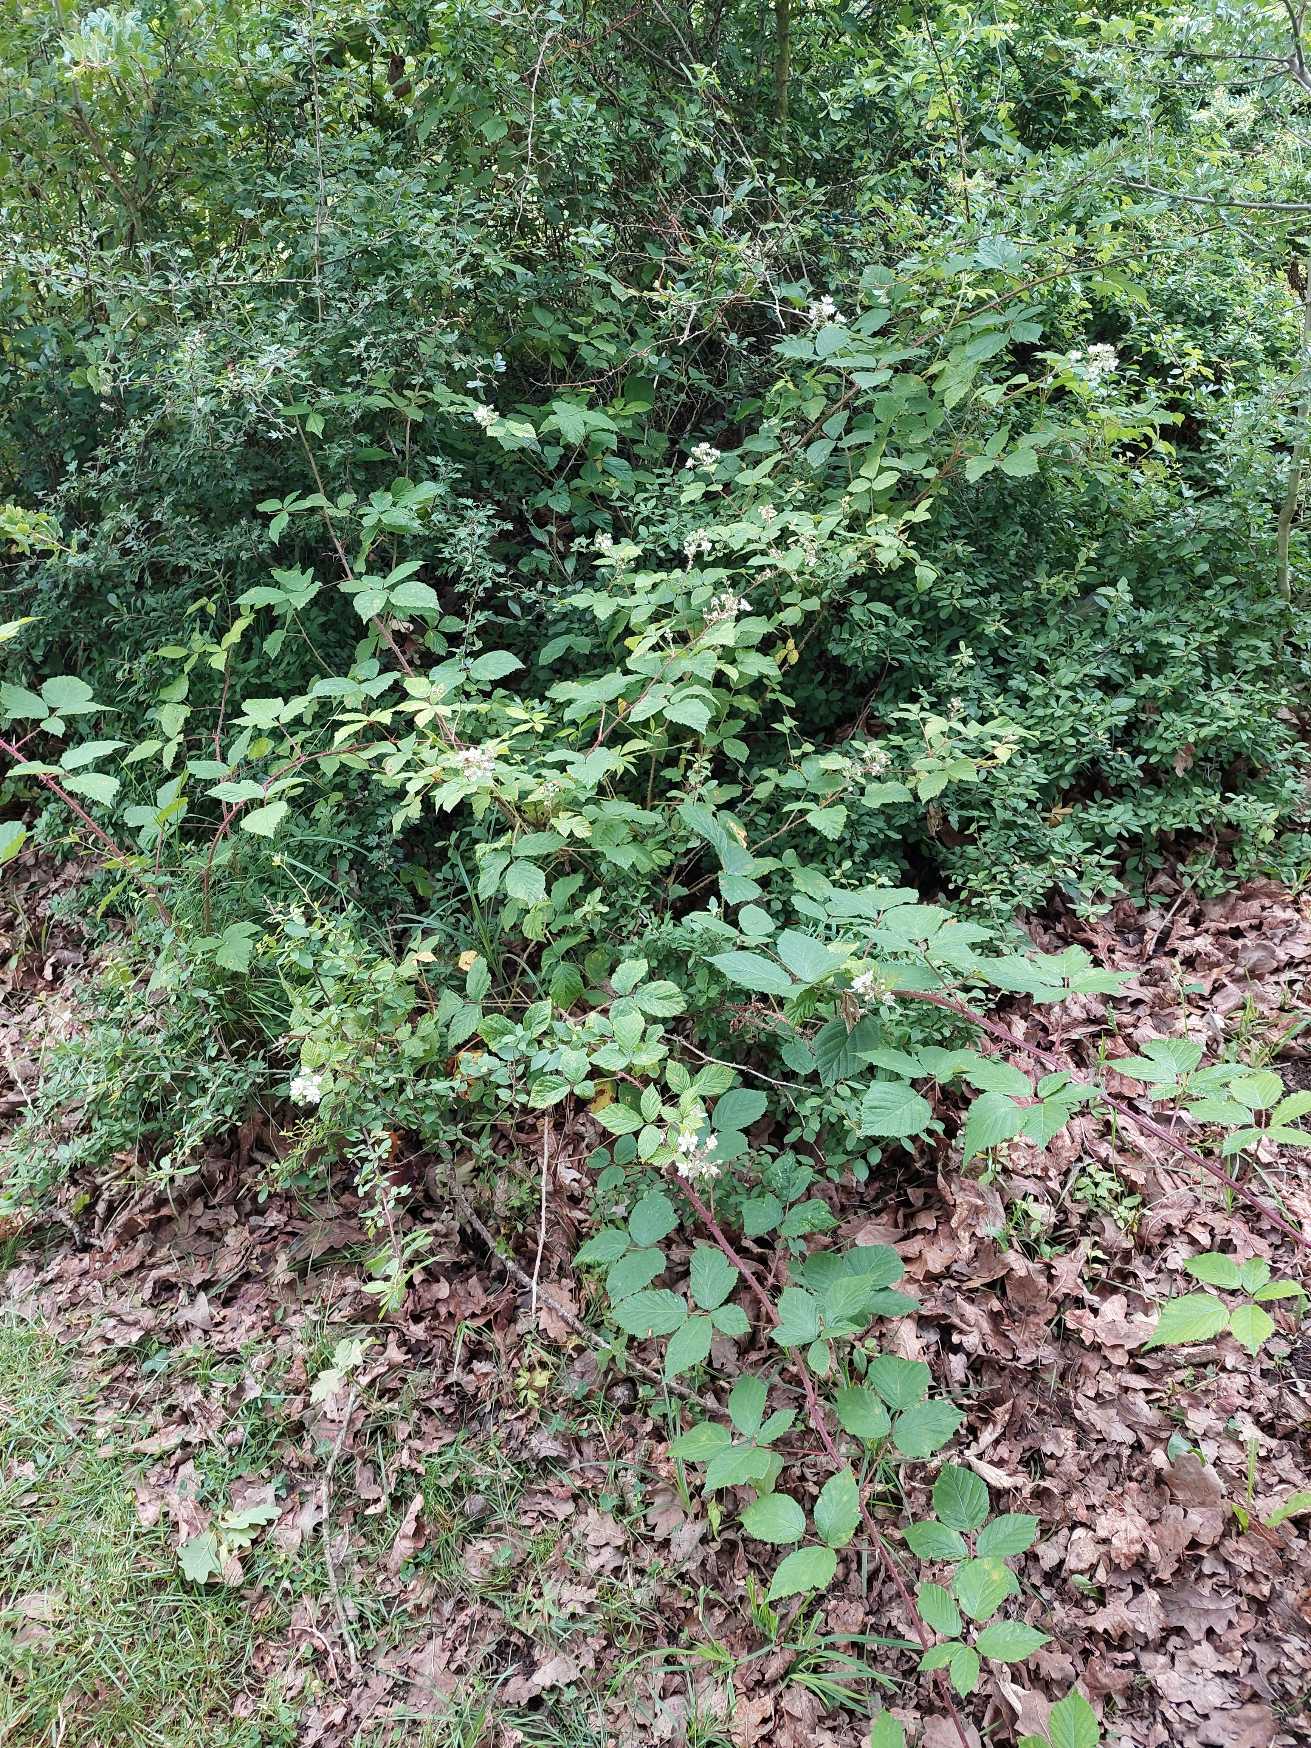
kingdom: Plantae
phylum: Tracheophyta
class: Magnoliopsida
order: Rosales
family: Rosaceae
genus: Rubus
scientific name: Rubus
